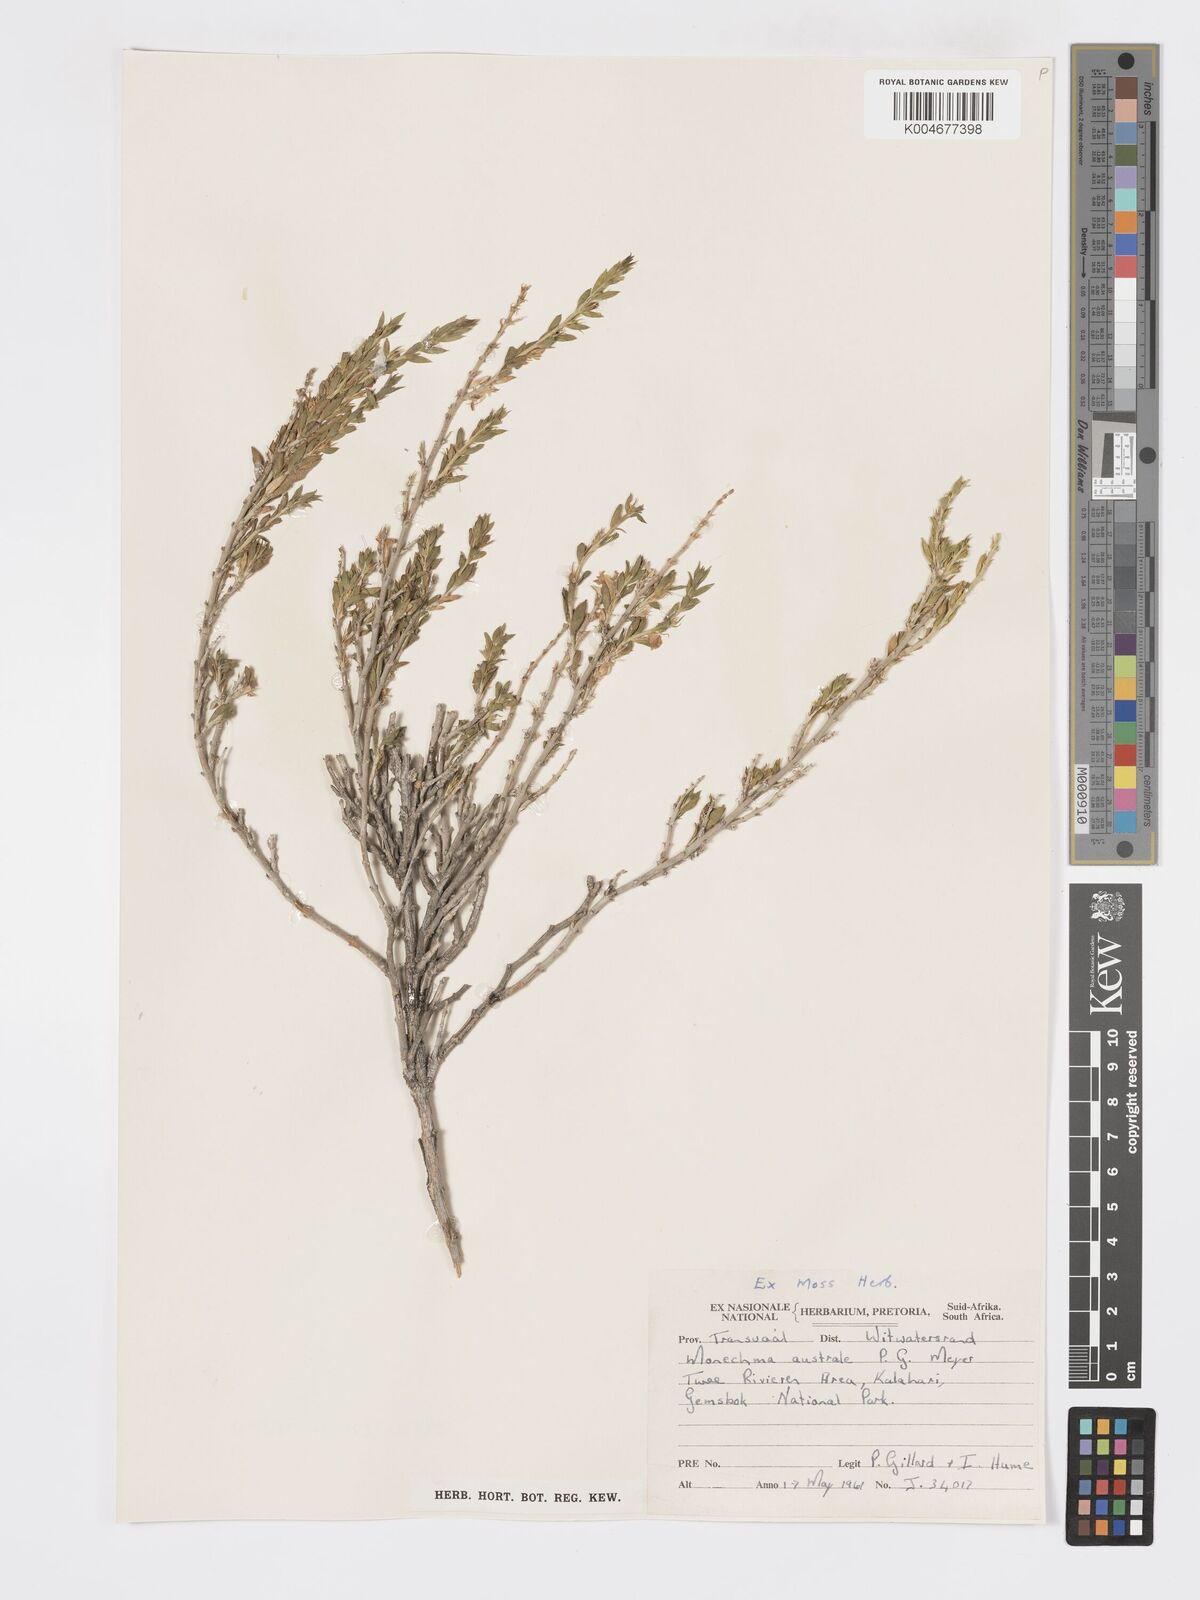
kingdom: Plantae
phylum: Tracheophyta
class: Magnoliopsida
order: Lamiales
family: Acanthaceae
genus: Pogonospermum
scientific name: Pogonospermum
